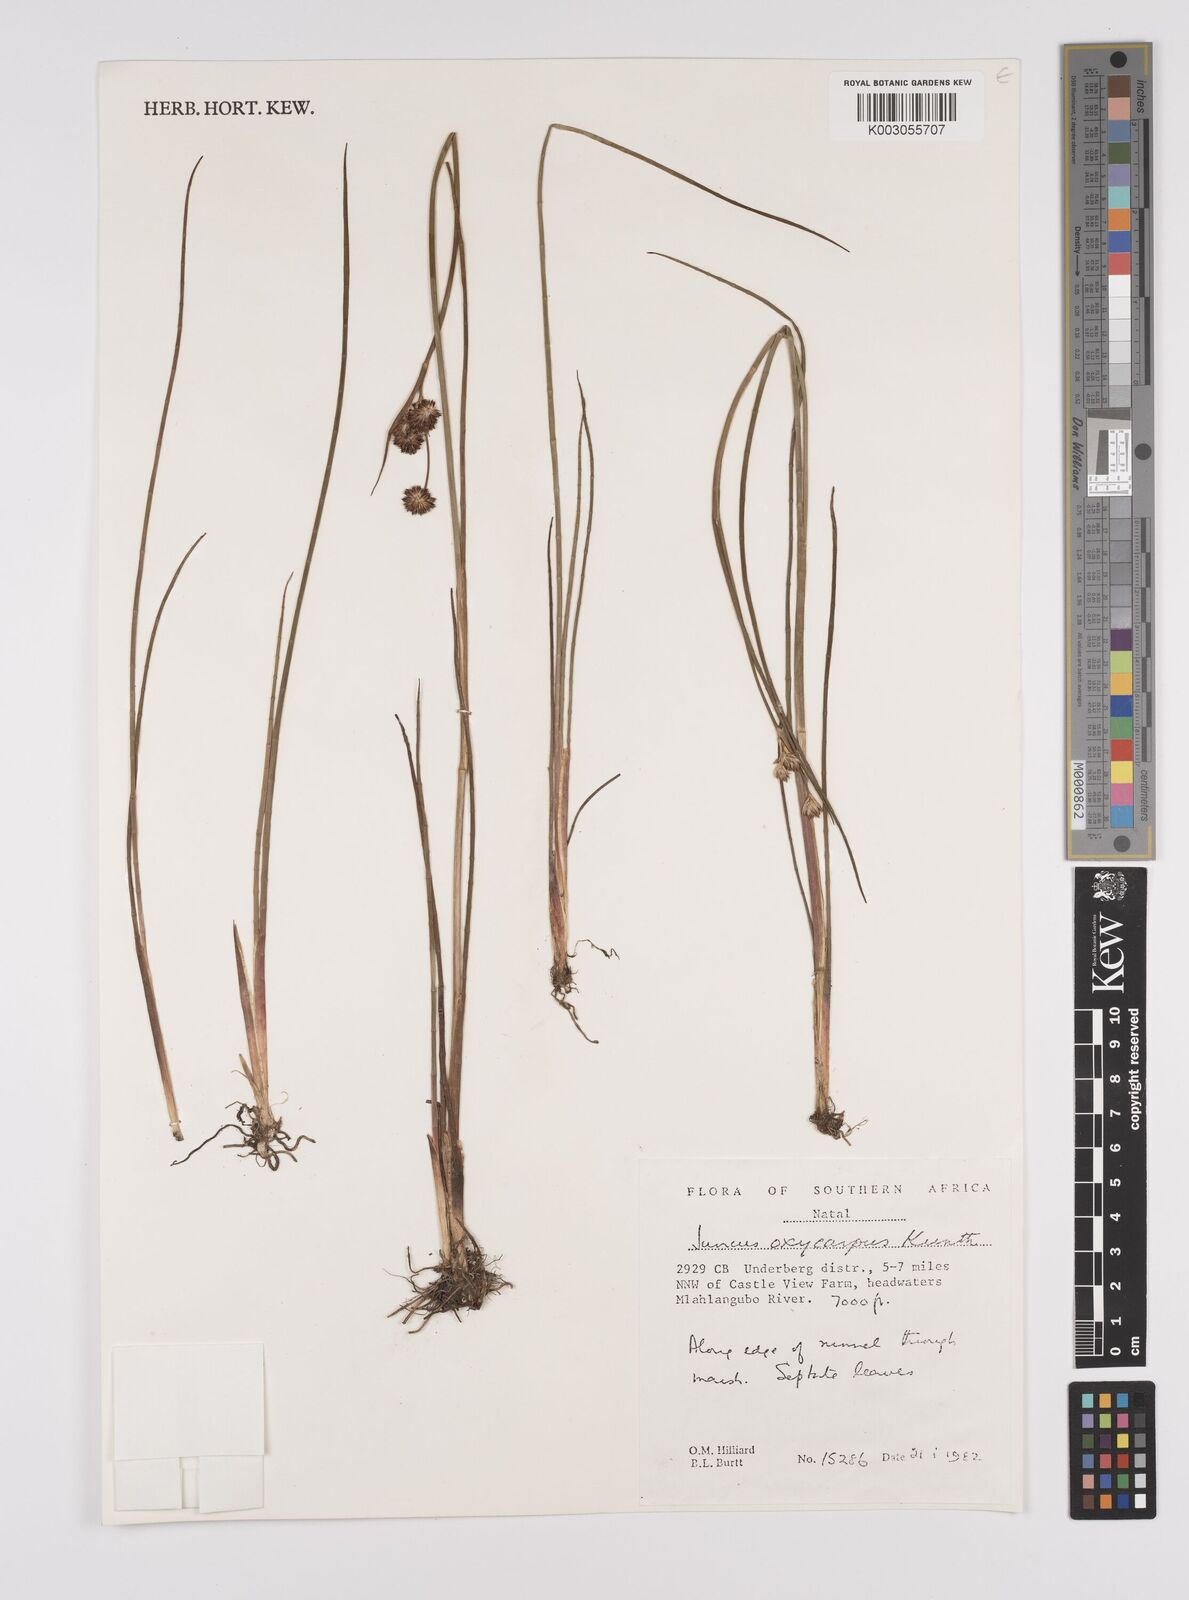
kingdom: Plantae
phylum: Tracheophyta
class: Liliopsida
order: Poales
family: Juncaceae
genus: Juncus
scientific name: Juncus oxycarpus
